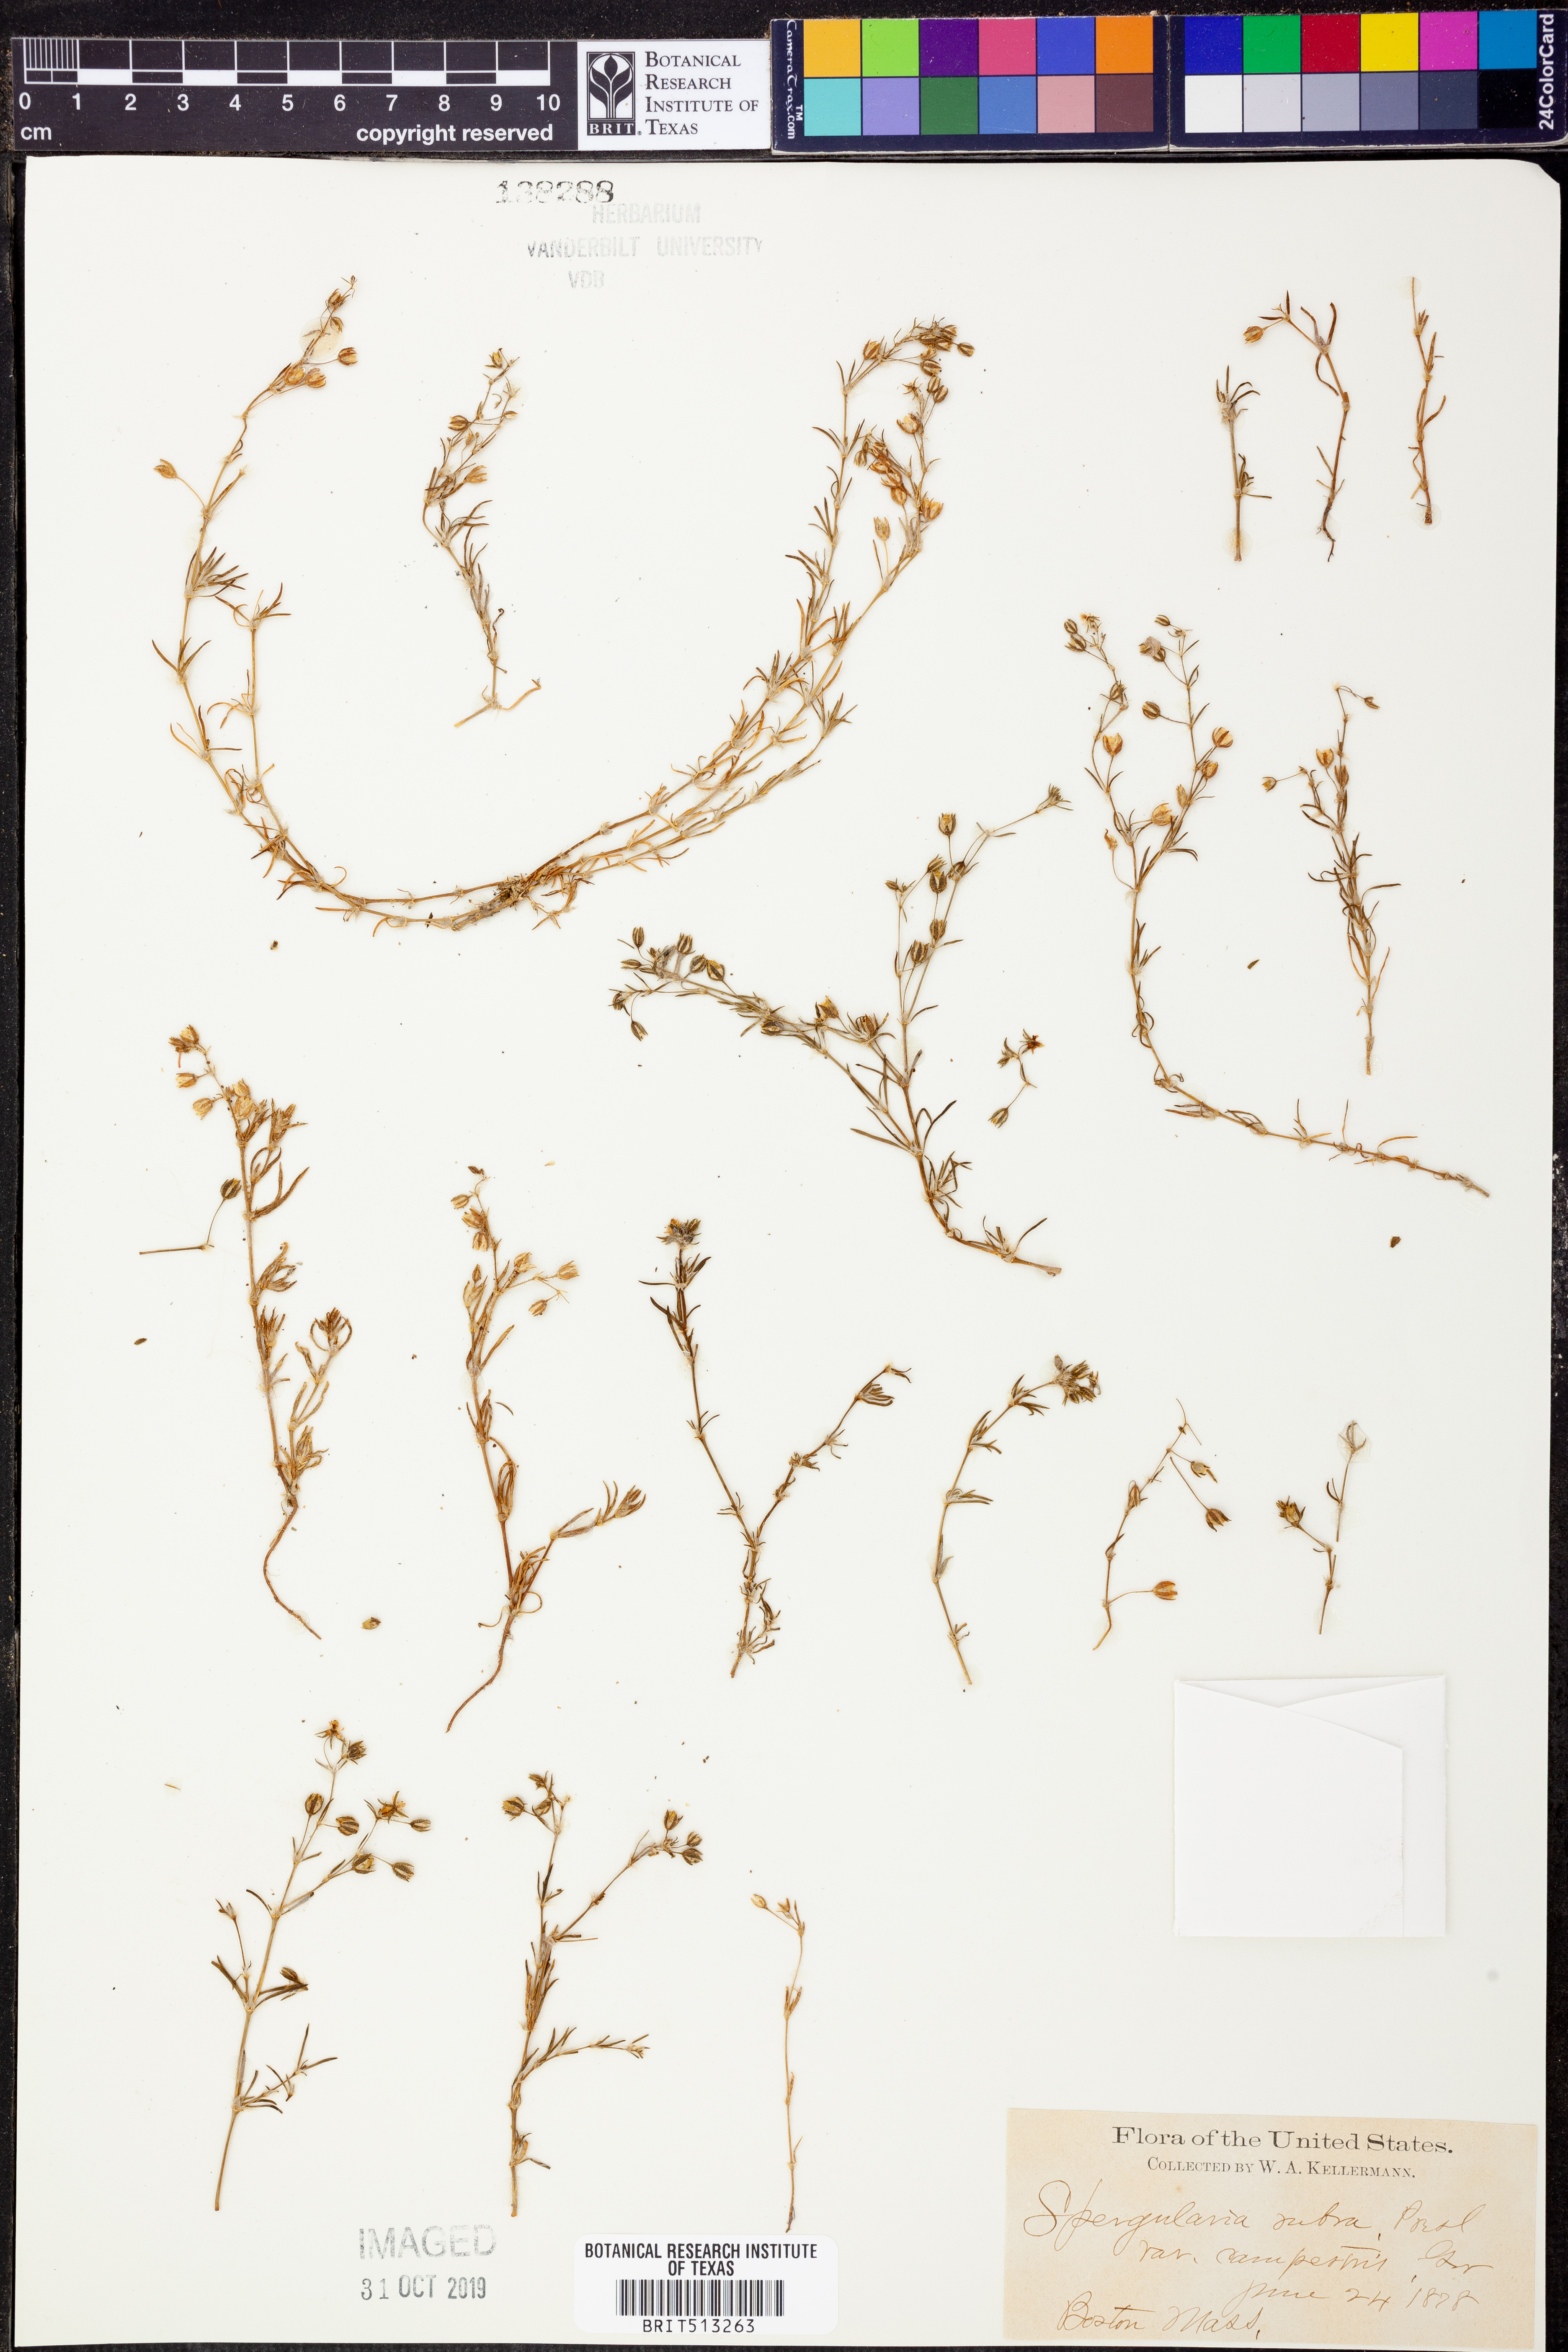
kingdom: Plantae
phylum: Tracheophyta
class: Magnoliopsida
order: Caryophyllales
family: Caryophyllaceae
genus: Spergularia
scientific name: Spergularia
